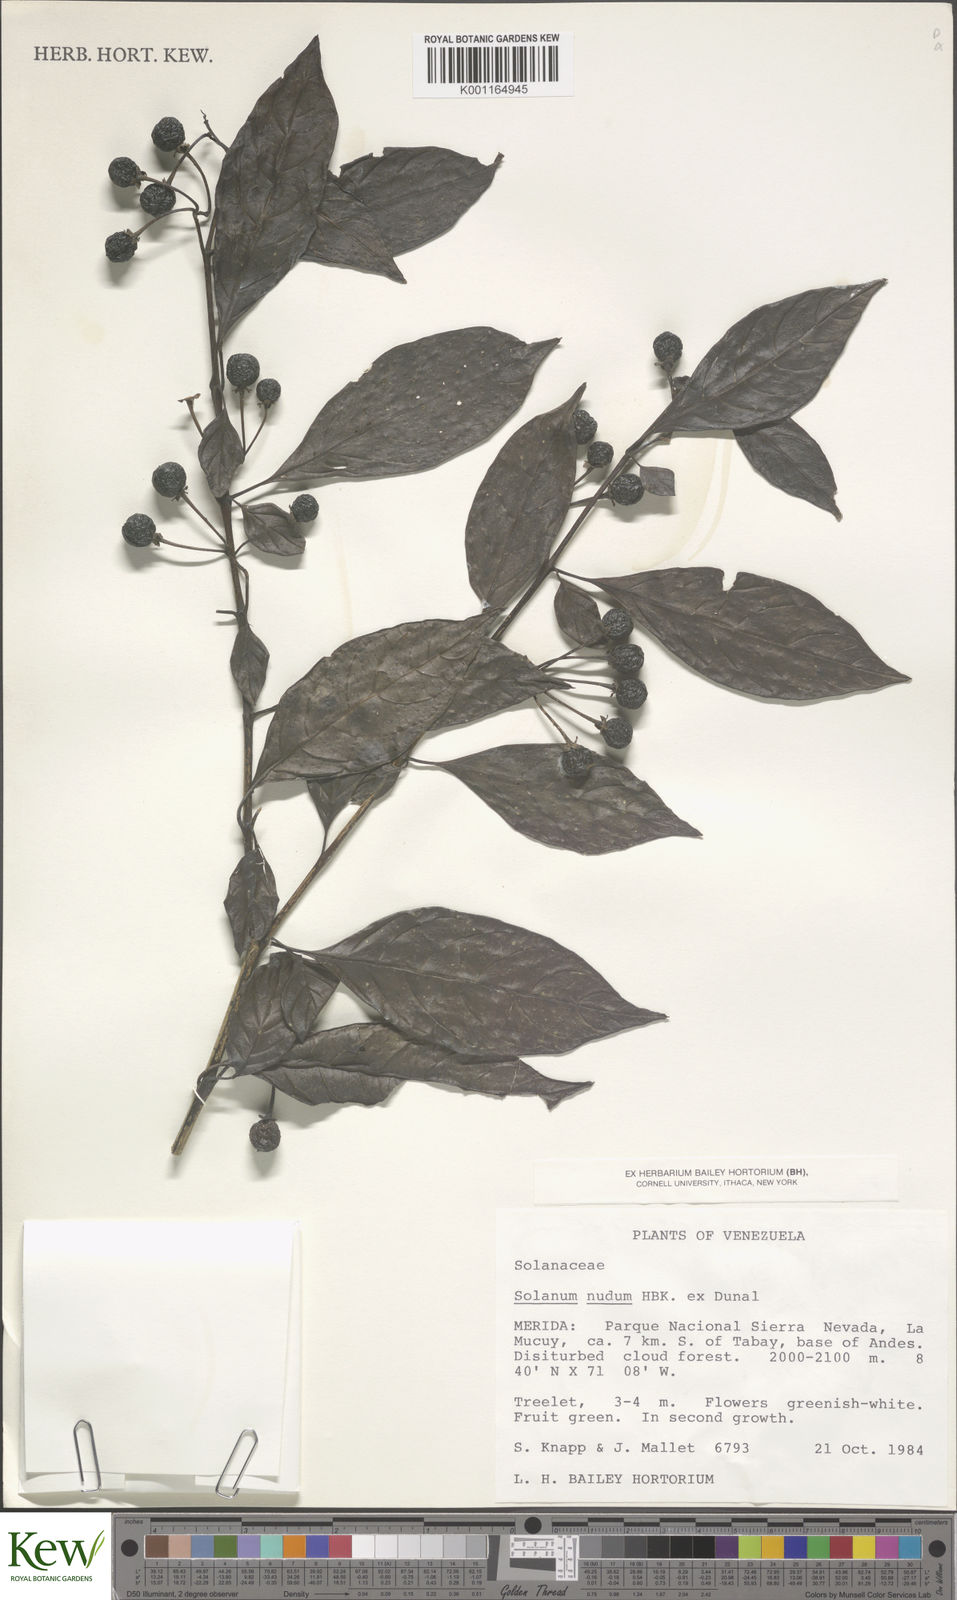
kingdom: Plantae
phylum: Tracheophyta
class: Magnoliopsida
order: Solanales
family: Solanaceae
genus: Solanum
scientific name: Solanum nudum
